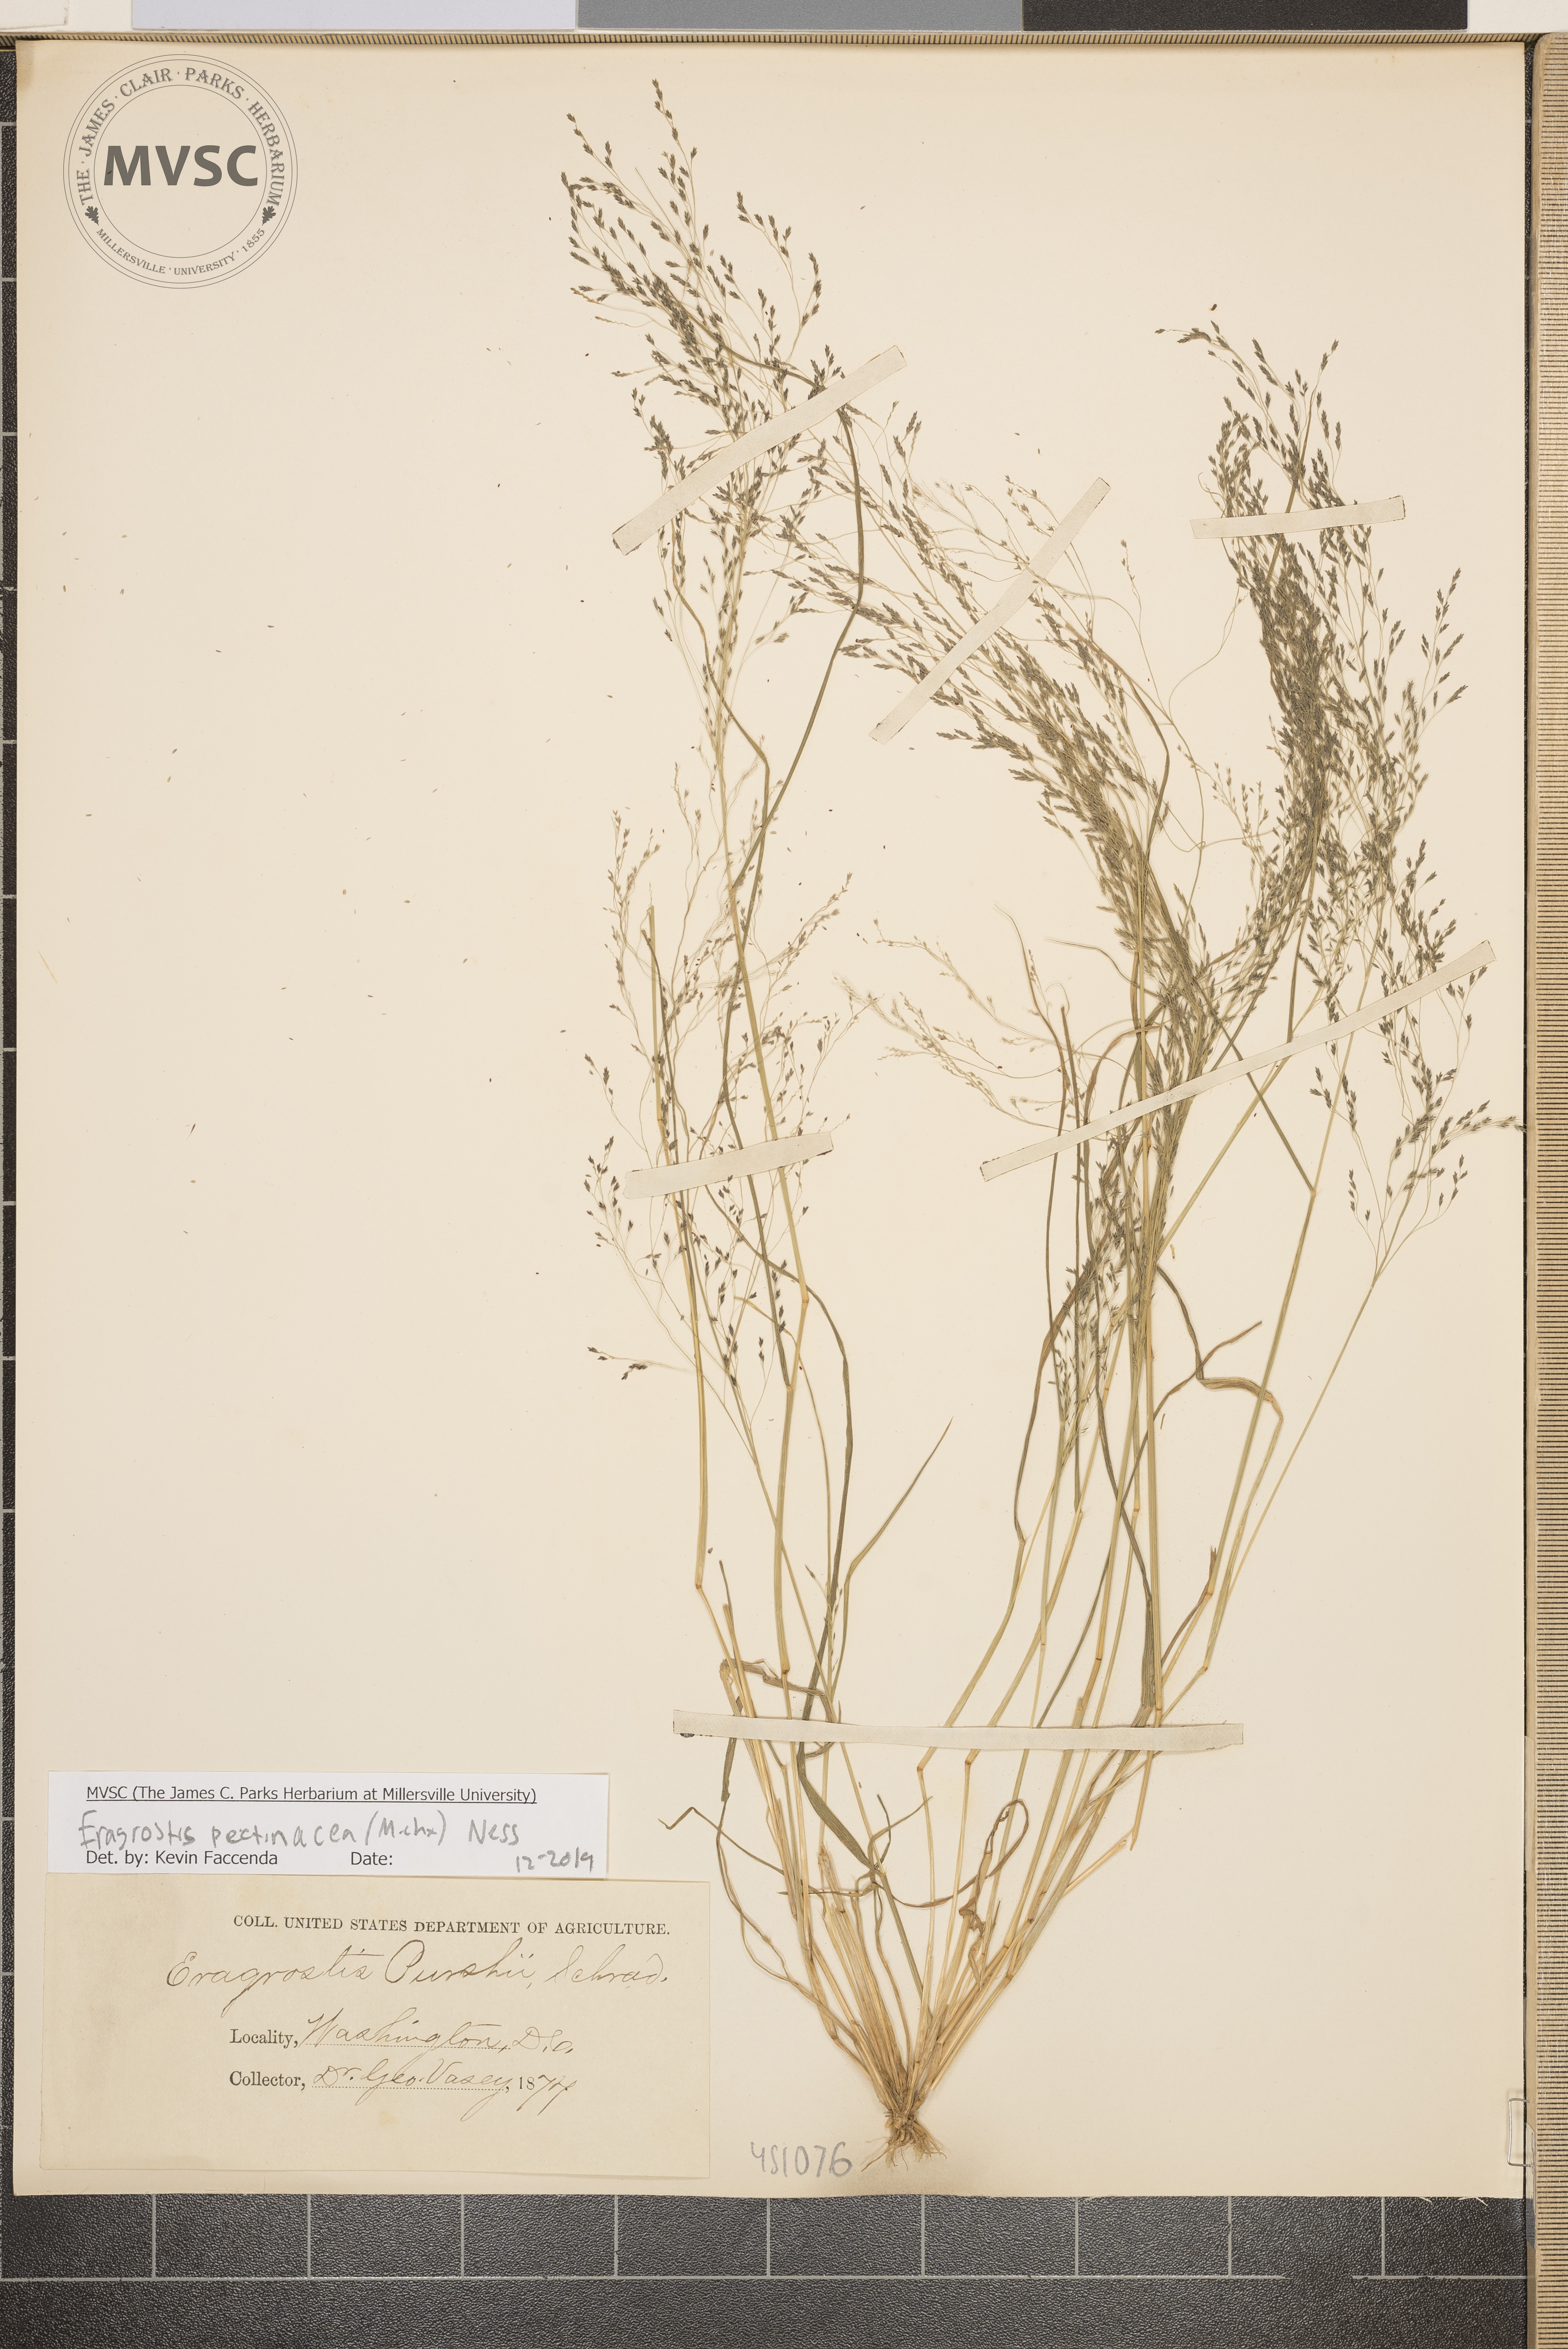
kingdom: Plantae
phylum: Tracheophyta
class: Liliopsida
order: Poales
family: Poaceae
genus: Eragrostis
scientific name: Eragrostis pectinacea
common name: Tufted lovegrass
